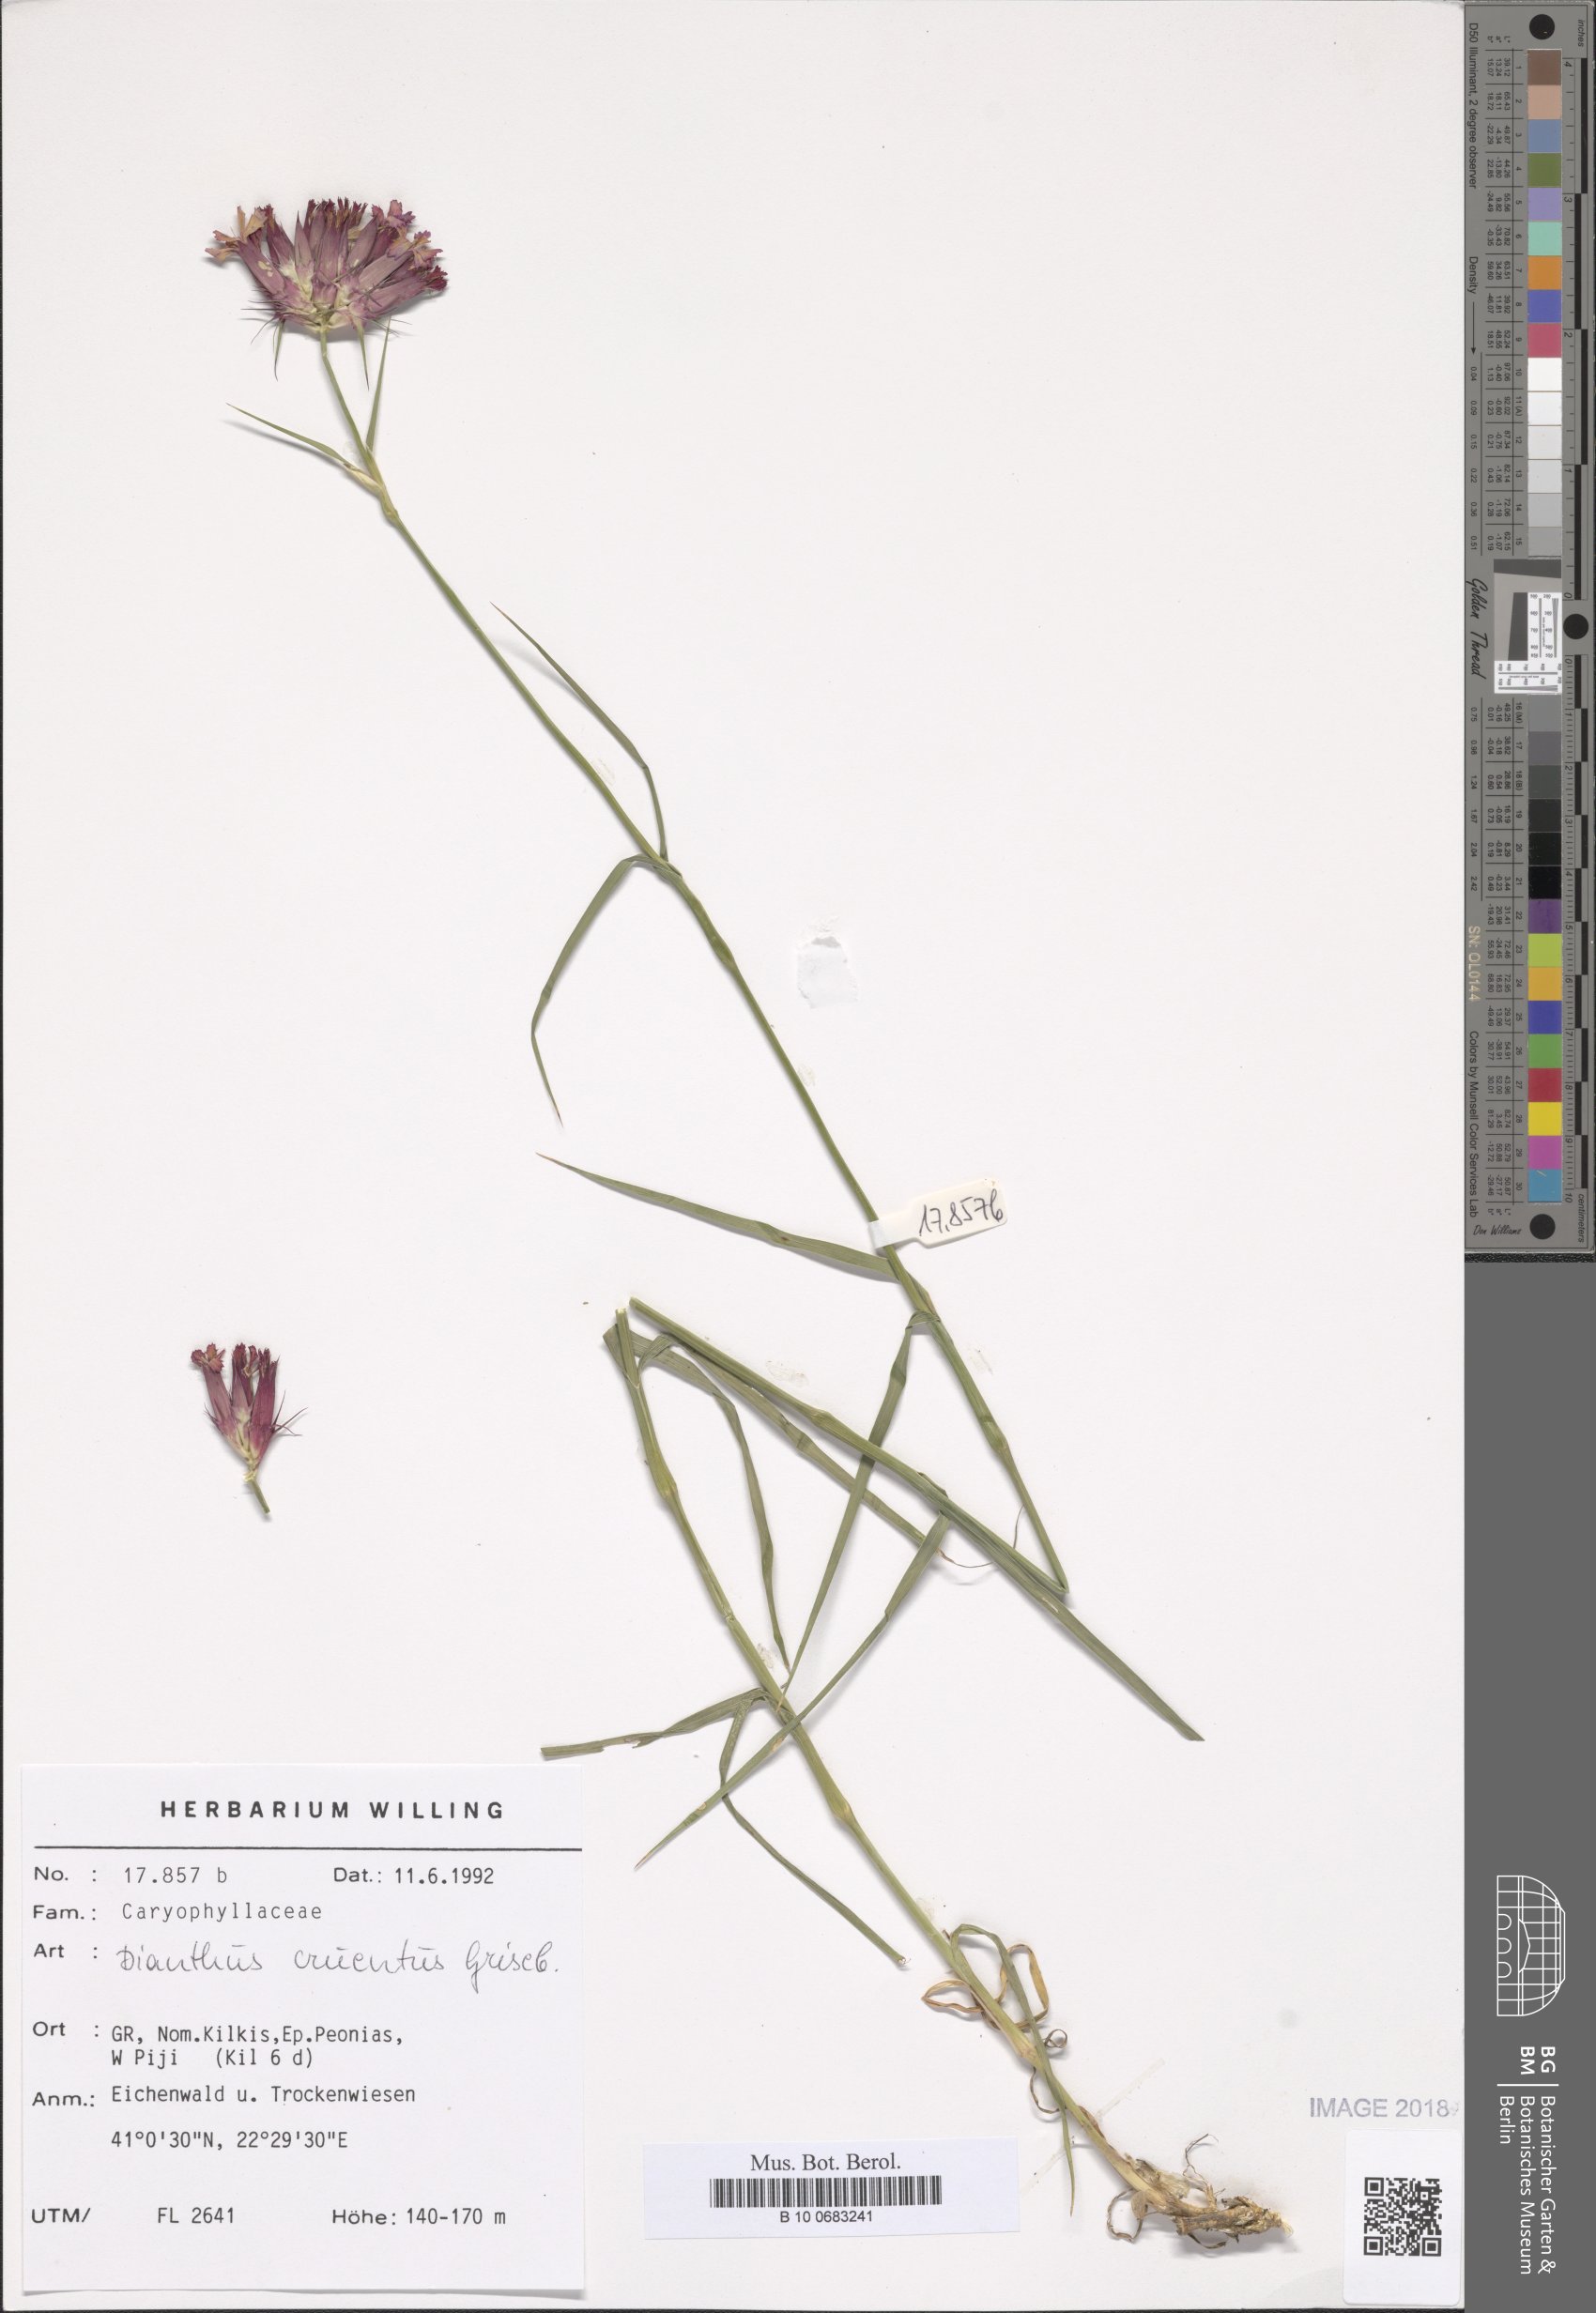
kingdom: Plantae
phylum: Tracheophyta
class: Magnoliopsida
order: Caryophyllales
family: Caryophyllaceae
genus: Dianthus
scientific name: Dianthus cruentus
